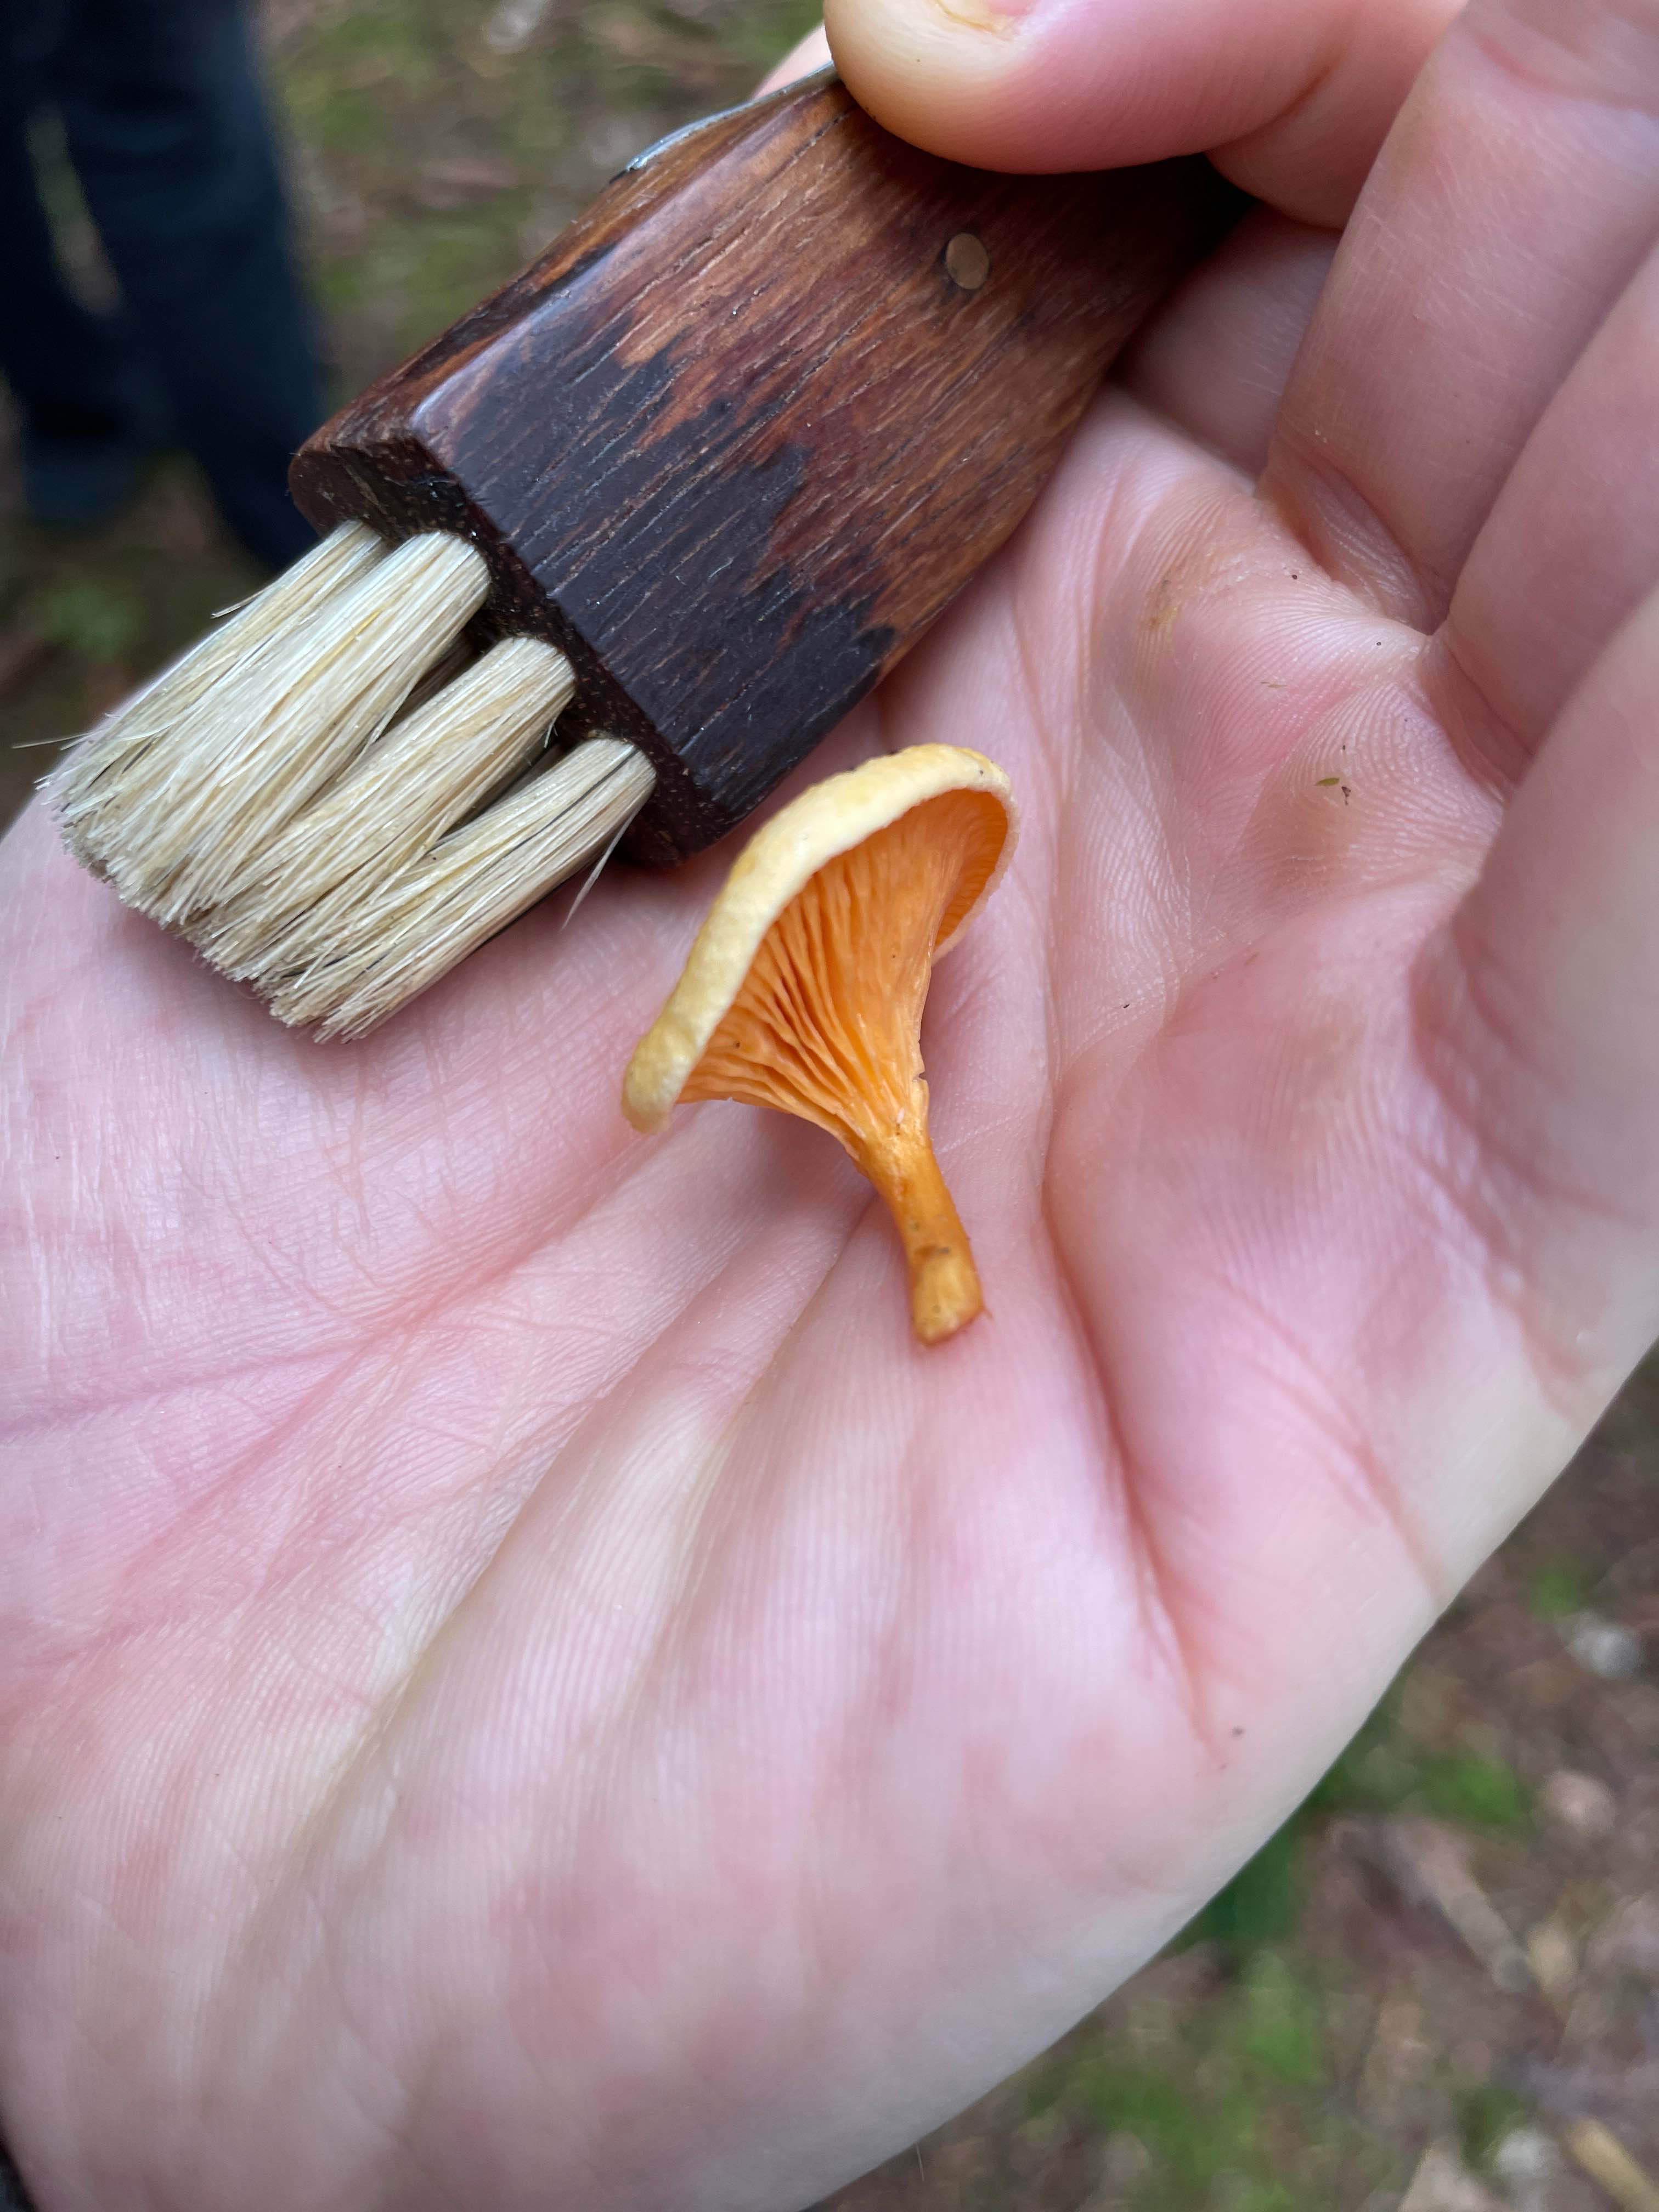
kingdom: Fungi
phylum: Basidiomycota
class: Agaricomycetes
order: Boletales
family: Hygrophoropsidaceae
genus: Hygrophoropsis
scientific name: Hygrophoropsis aurantiaca
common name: almindelig orangekantarel
